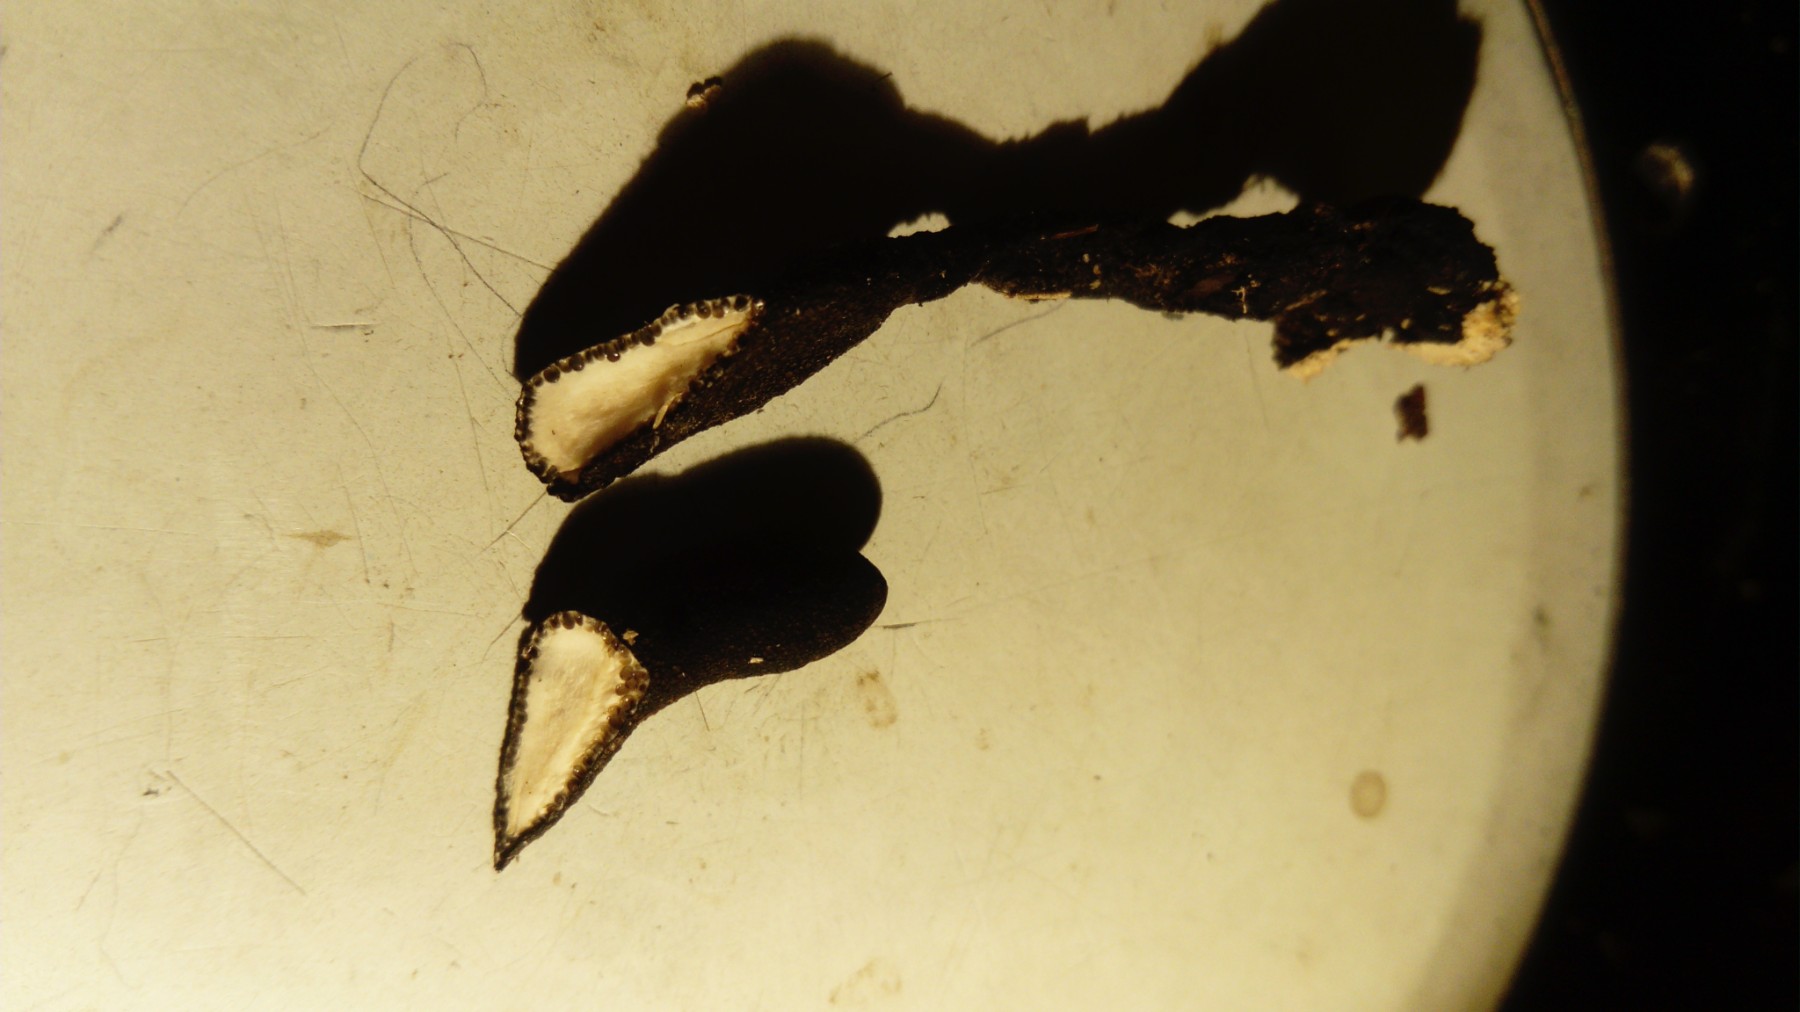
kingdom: Fungi
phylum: Ascomycota
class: Sordariomycetes
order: Xylariales
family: Xylariaceae
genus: Xylaria
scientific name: Xylaria longipes
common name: slank stødsvamp
